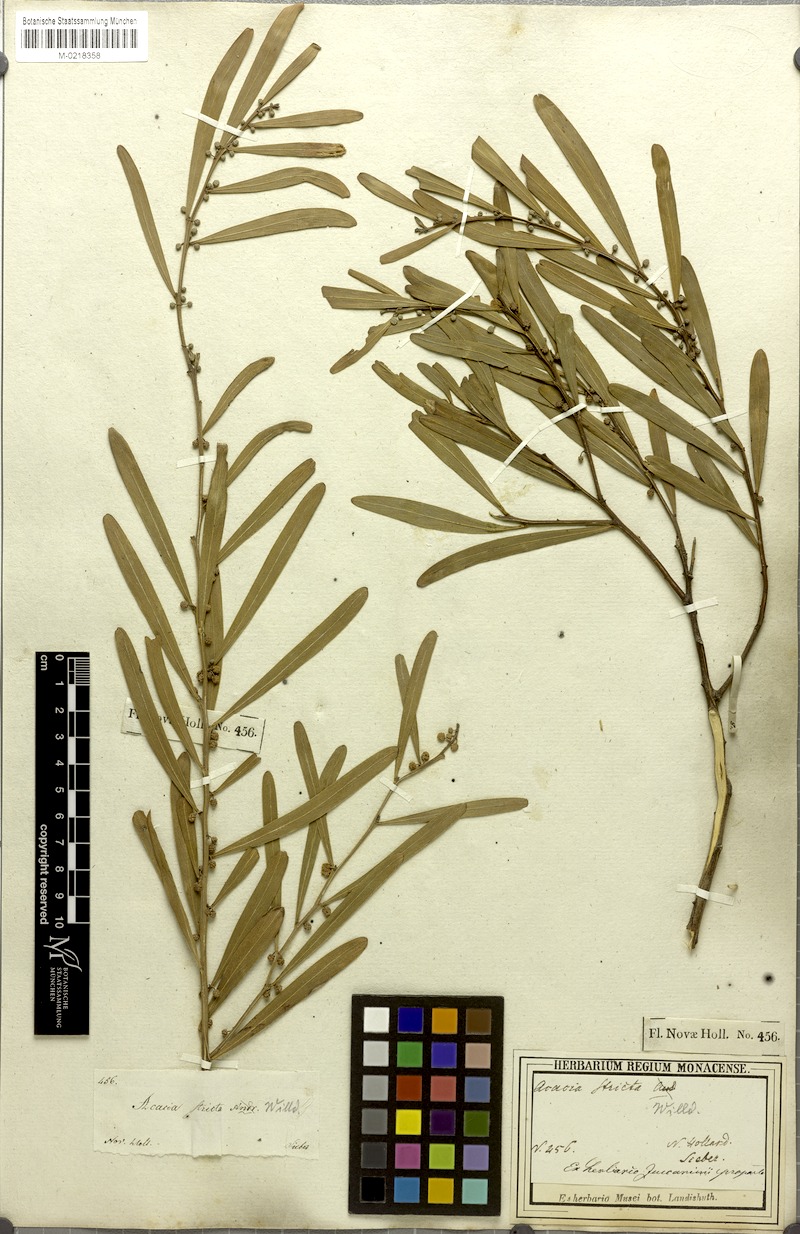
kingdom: Plantae
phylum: Tracheophyta
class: Magnoliopsida
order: Fabales
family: Fabaceae
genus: Acacia
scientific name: Acacia stricta
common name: Hop wattle
